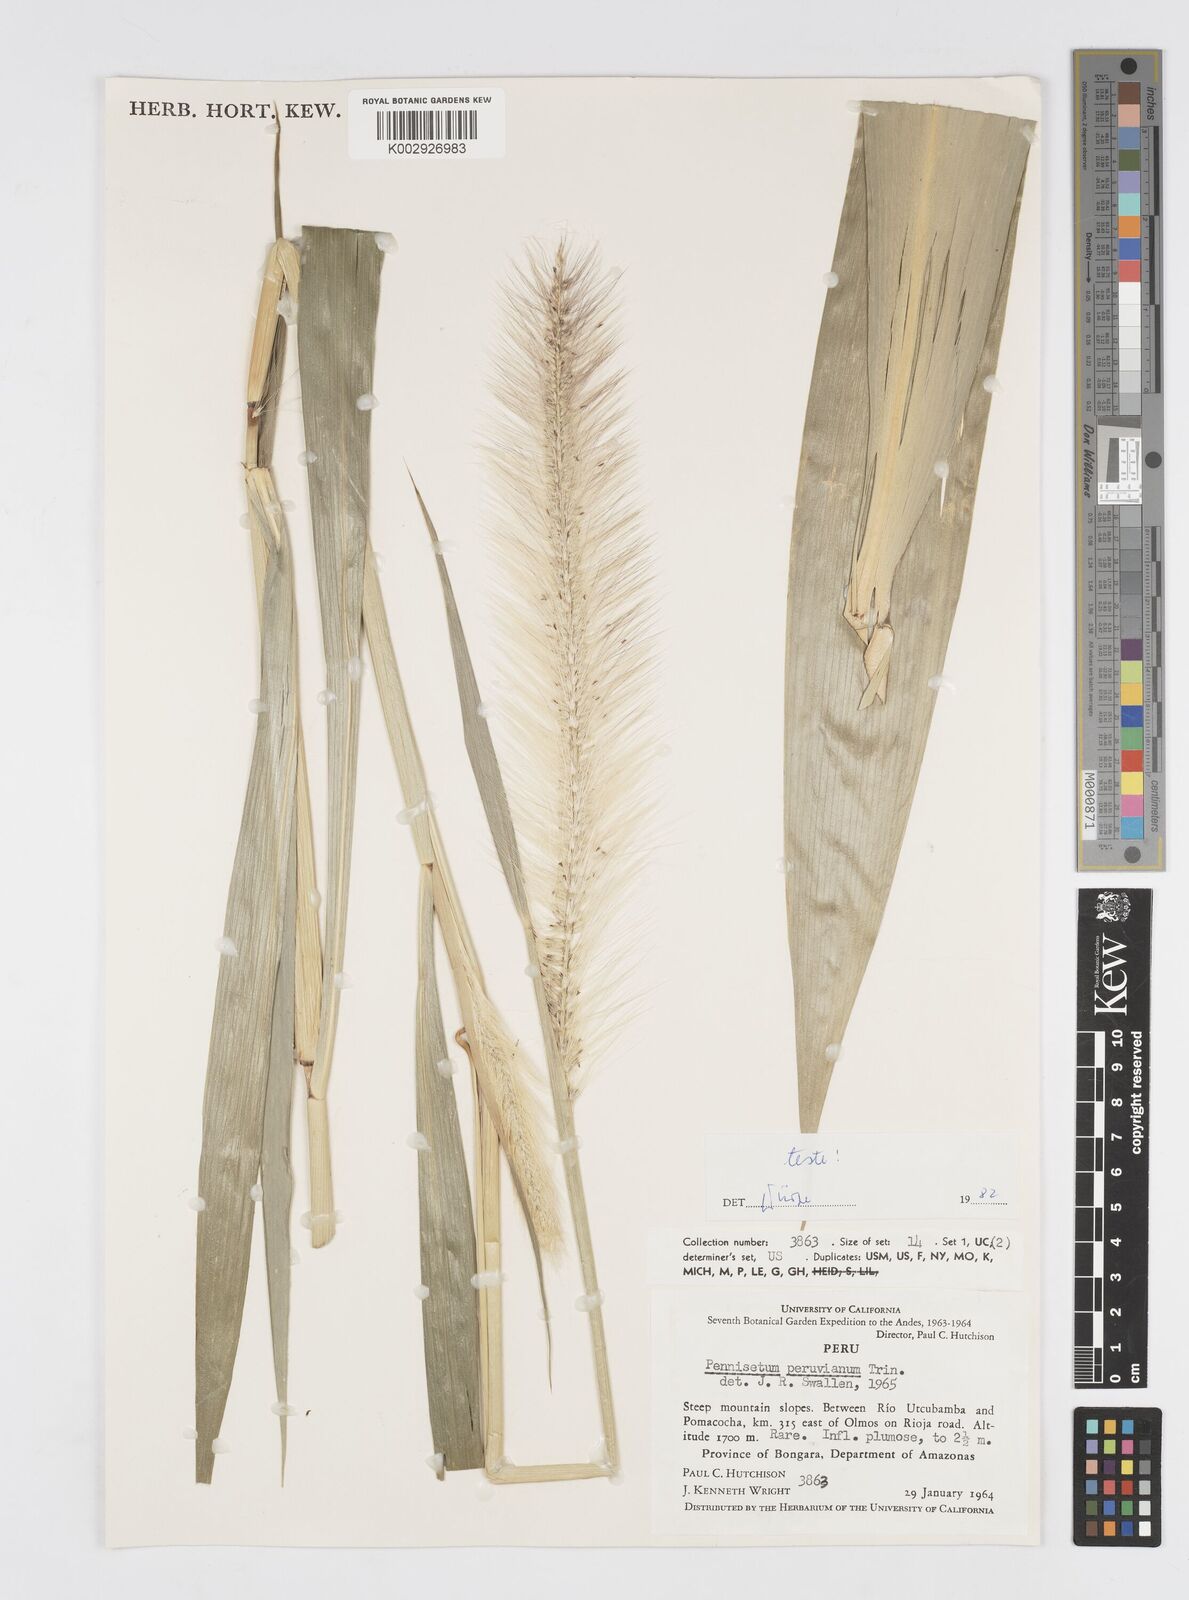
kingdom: Plantae
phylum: Tracheophyta
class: Liliopsida
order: Poales
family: Poaceae
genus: Cenchrus
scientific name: Cenchrus peruvianus
